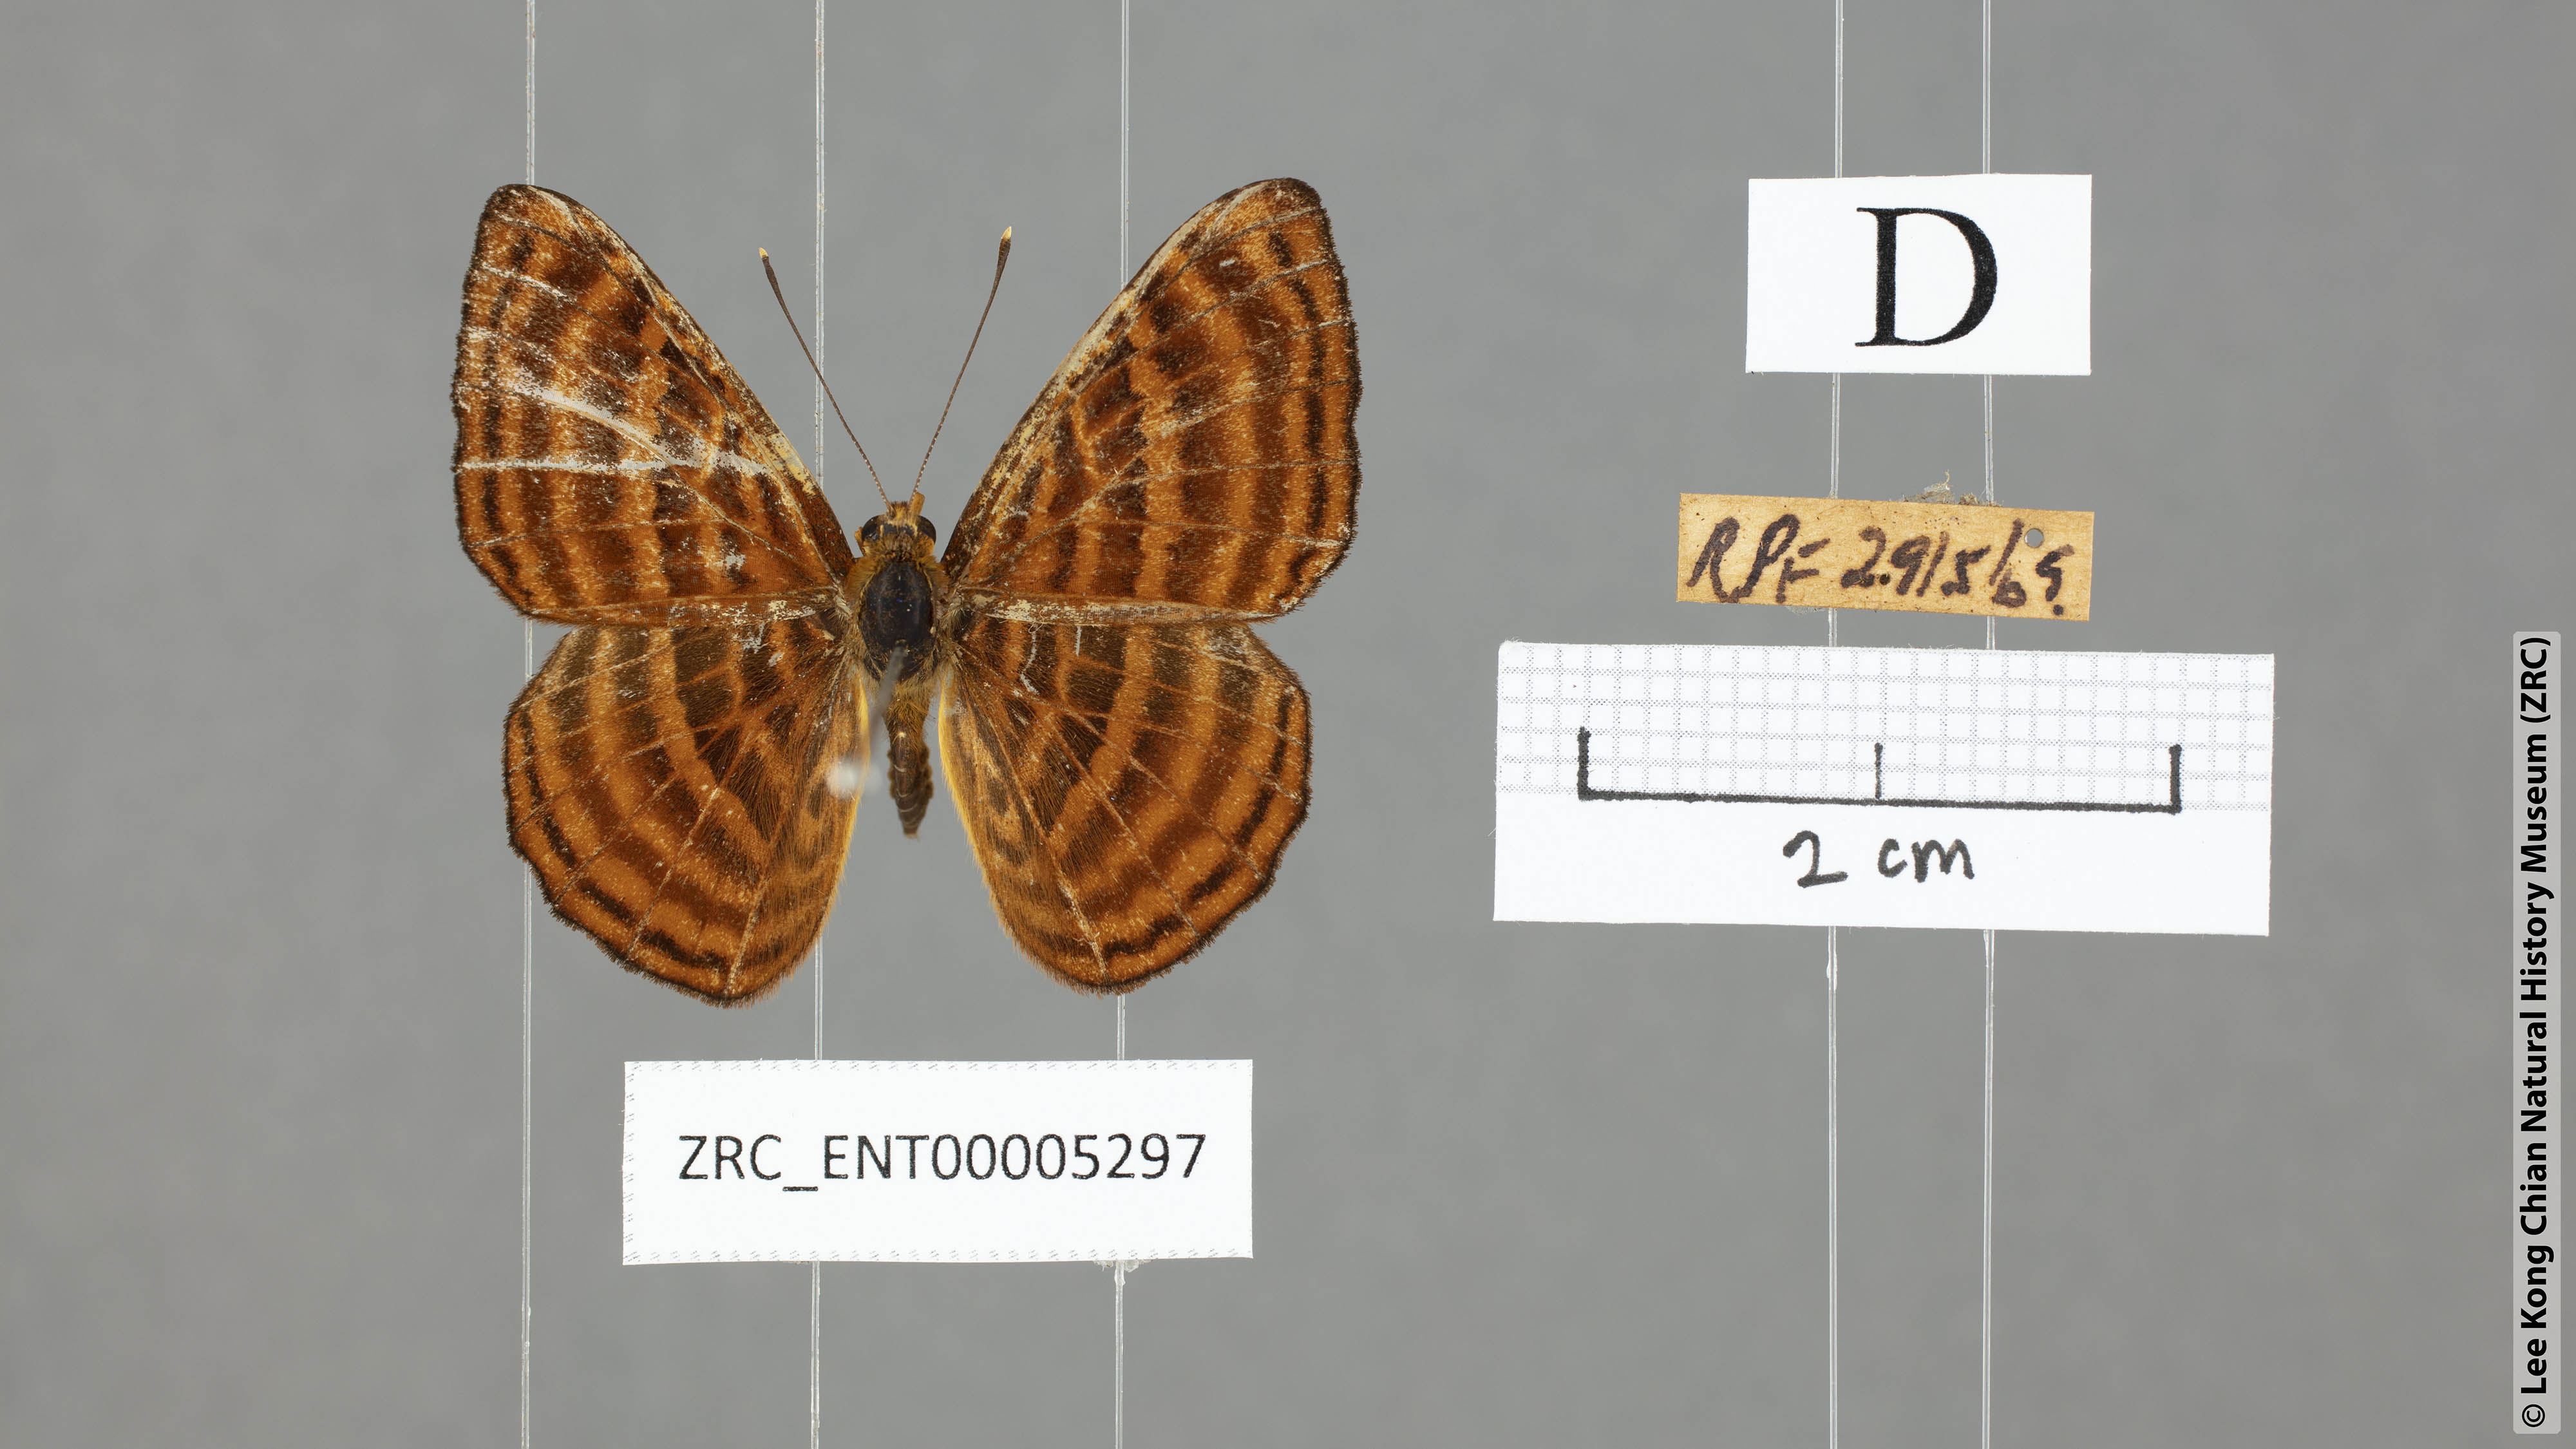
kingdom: Animalia
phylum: Arthropoda
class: Insecta
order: Lepidoptera
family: Riodinidae
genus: Zemeros
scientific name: Zemeros emesoides
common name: Malay punchinello
